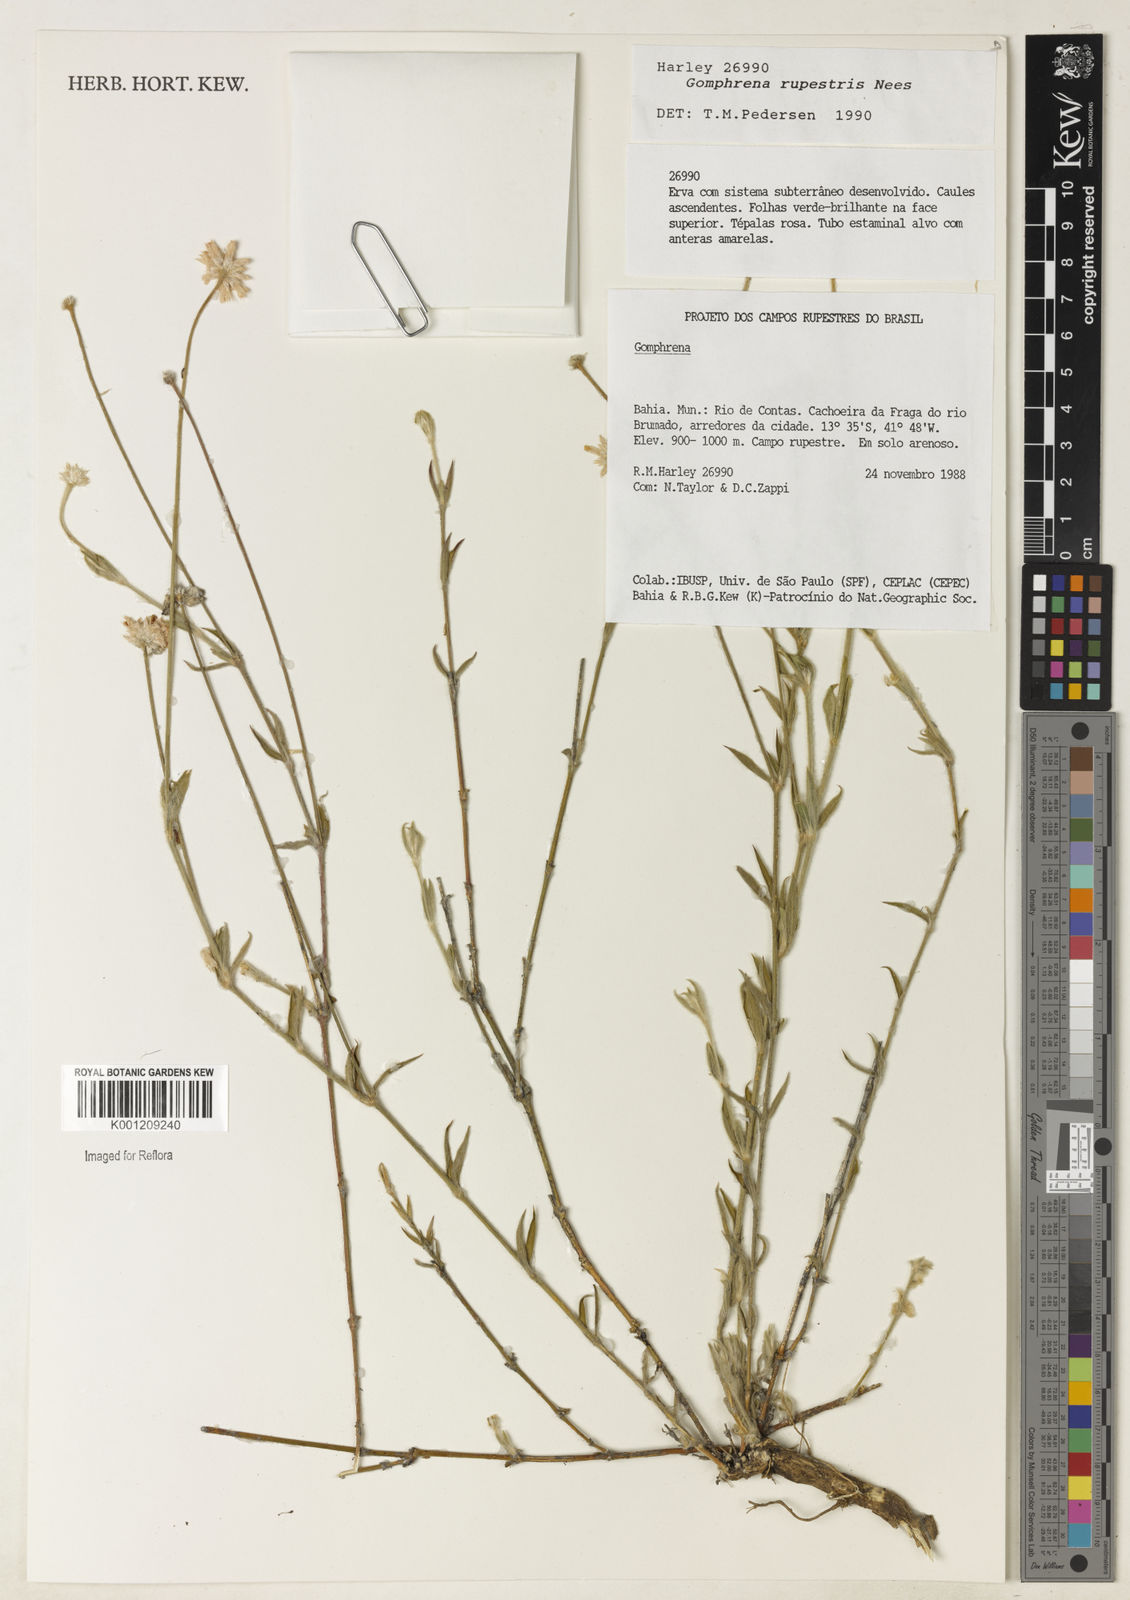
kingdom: Plantae
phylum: Tracheophyta
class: Magnoliopsida
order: Caryophyllales
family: Amaranthaceae
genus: Gomphrena
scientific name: Gomphrena rupestris
